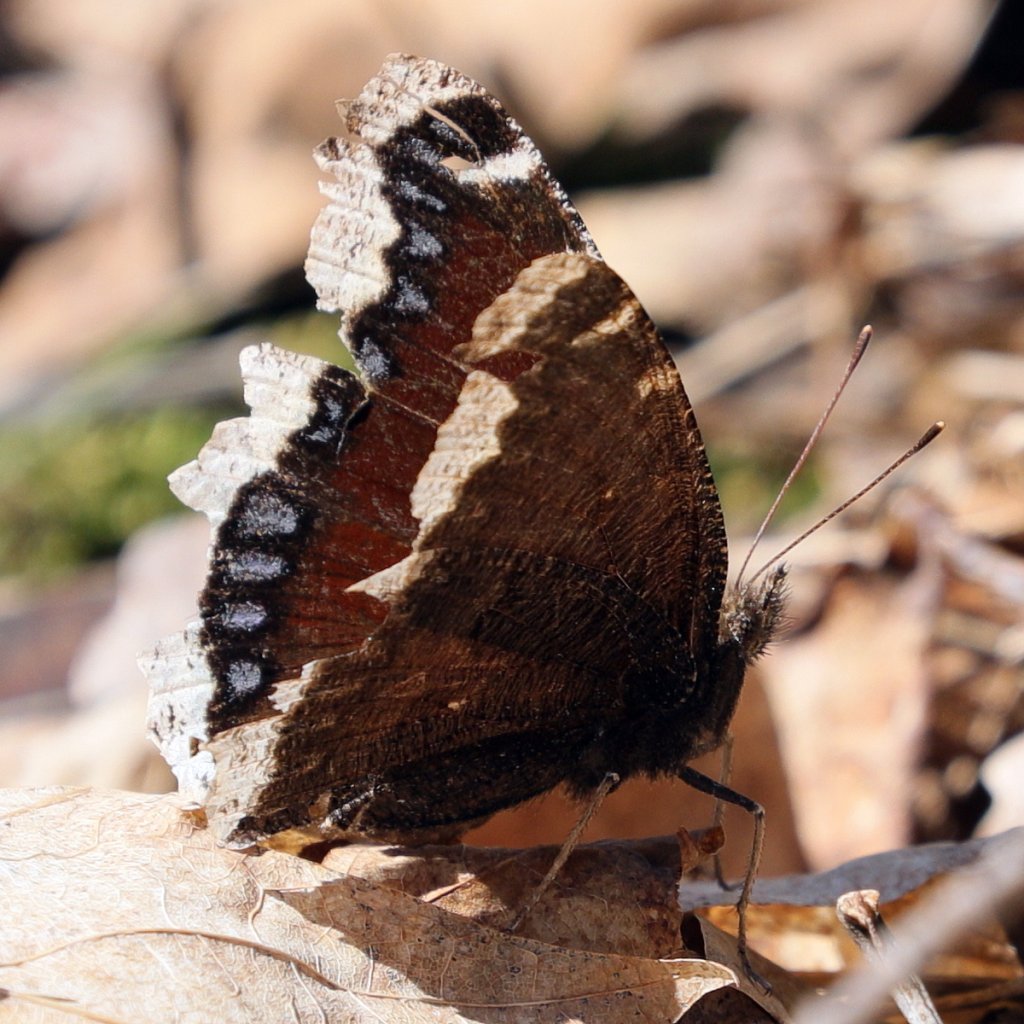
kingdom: Animalia
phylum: Arthropoda
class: Insecta
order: Lepidoptera
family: Nymphalidae
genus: Nymphalis
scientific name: Nymphalis antiopa
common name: Mourning Cloak
